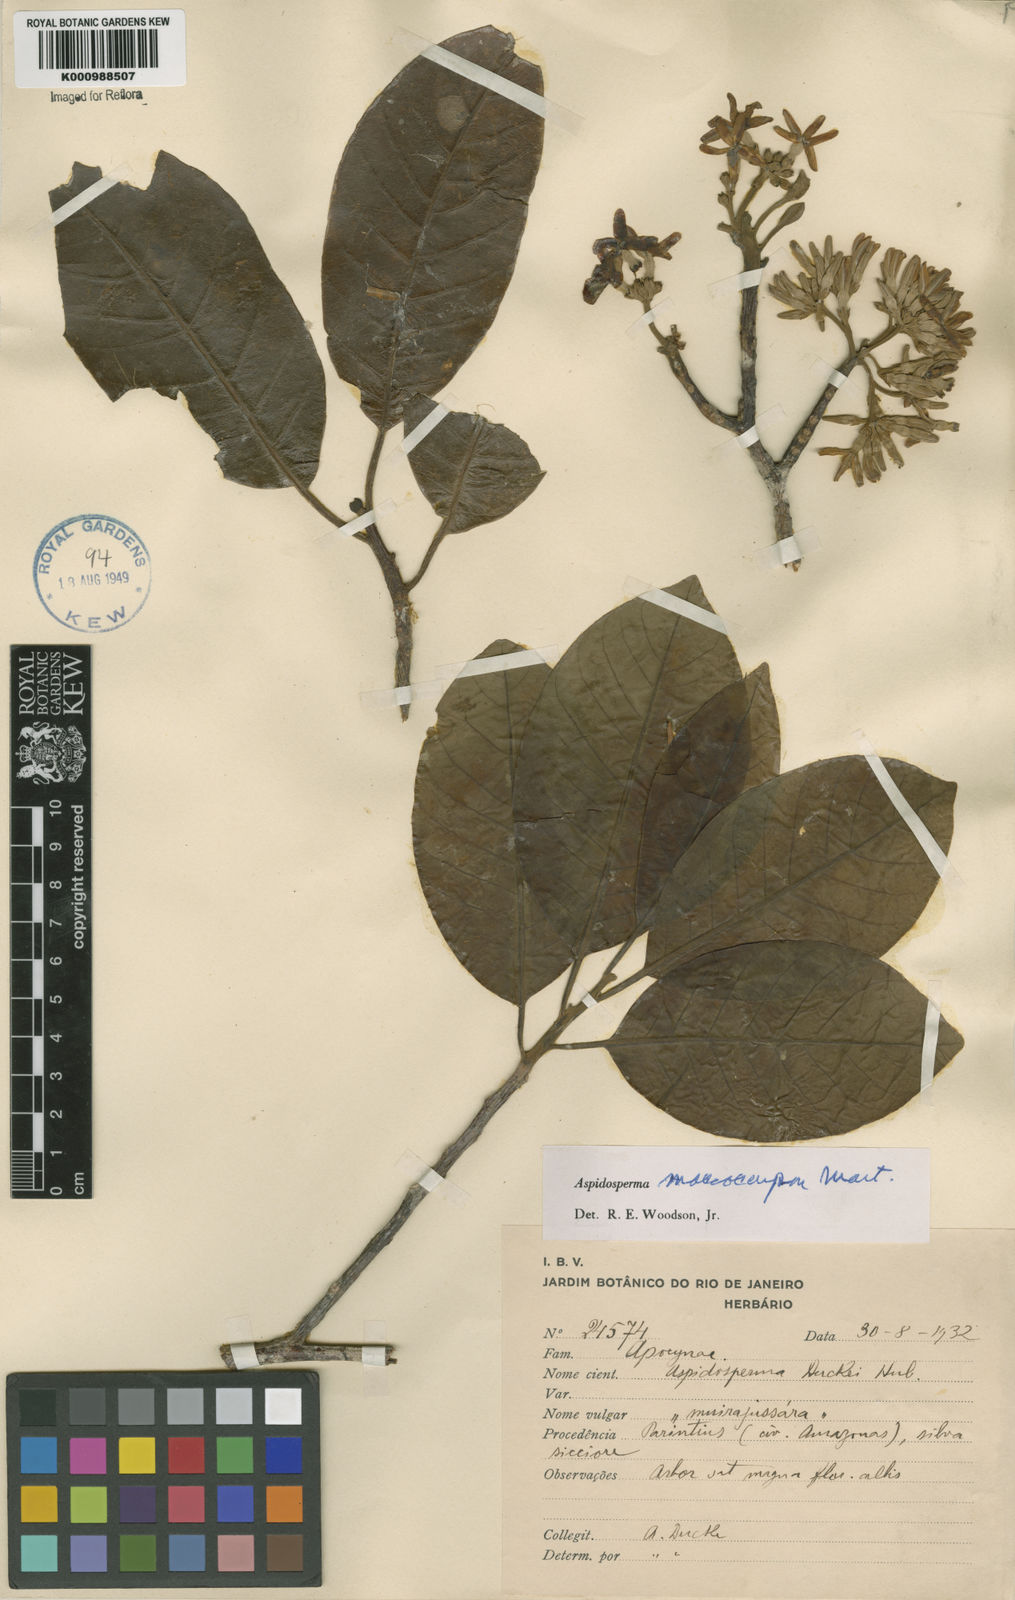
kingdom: Plantae
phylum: Tracheophyta
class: Magnoliopsida
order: Gentianales
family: Apocynaceae
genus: Aspidosperma
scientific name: Aspidosperma macrocarpon
